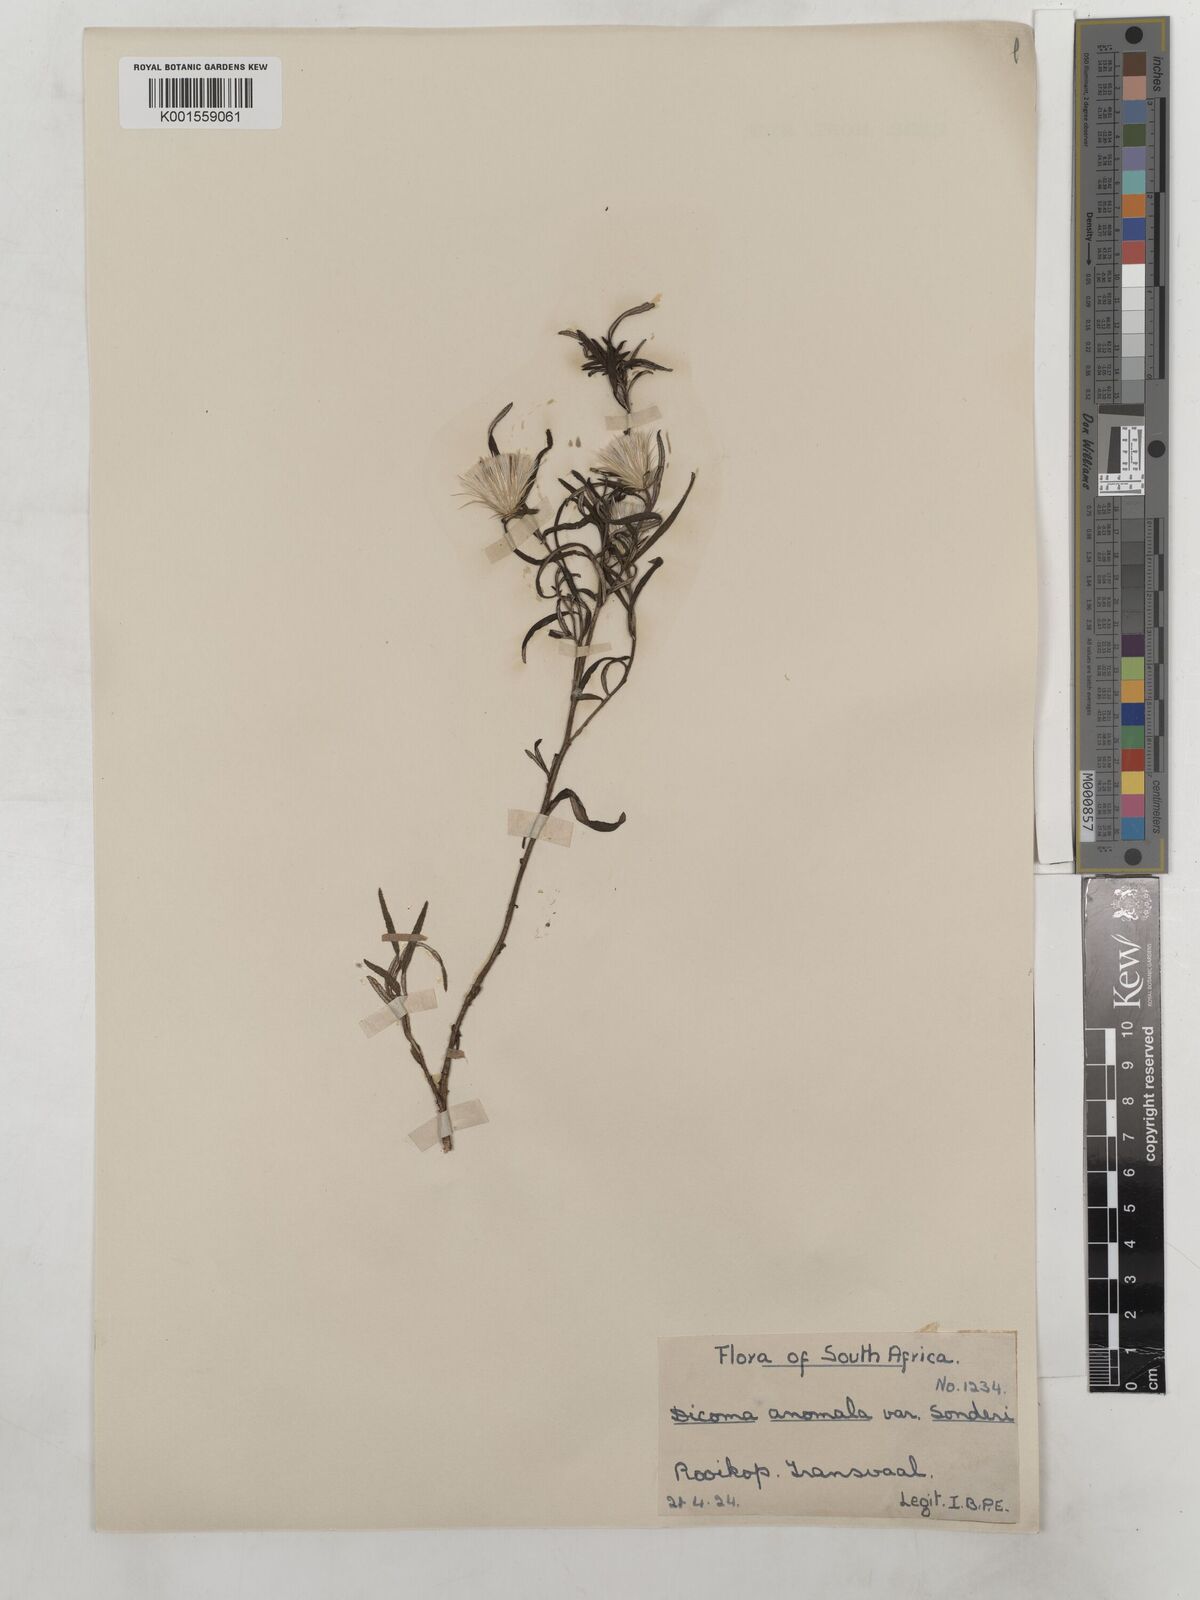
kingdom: Plantae
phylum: Tracheophyta
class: Magnoliopsida
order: Asterales
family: Asteraceae
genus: Dicoma
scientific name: Dicoma anomala
